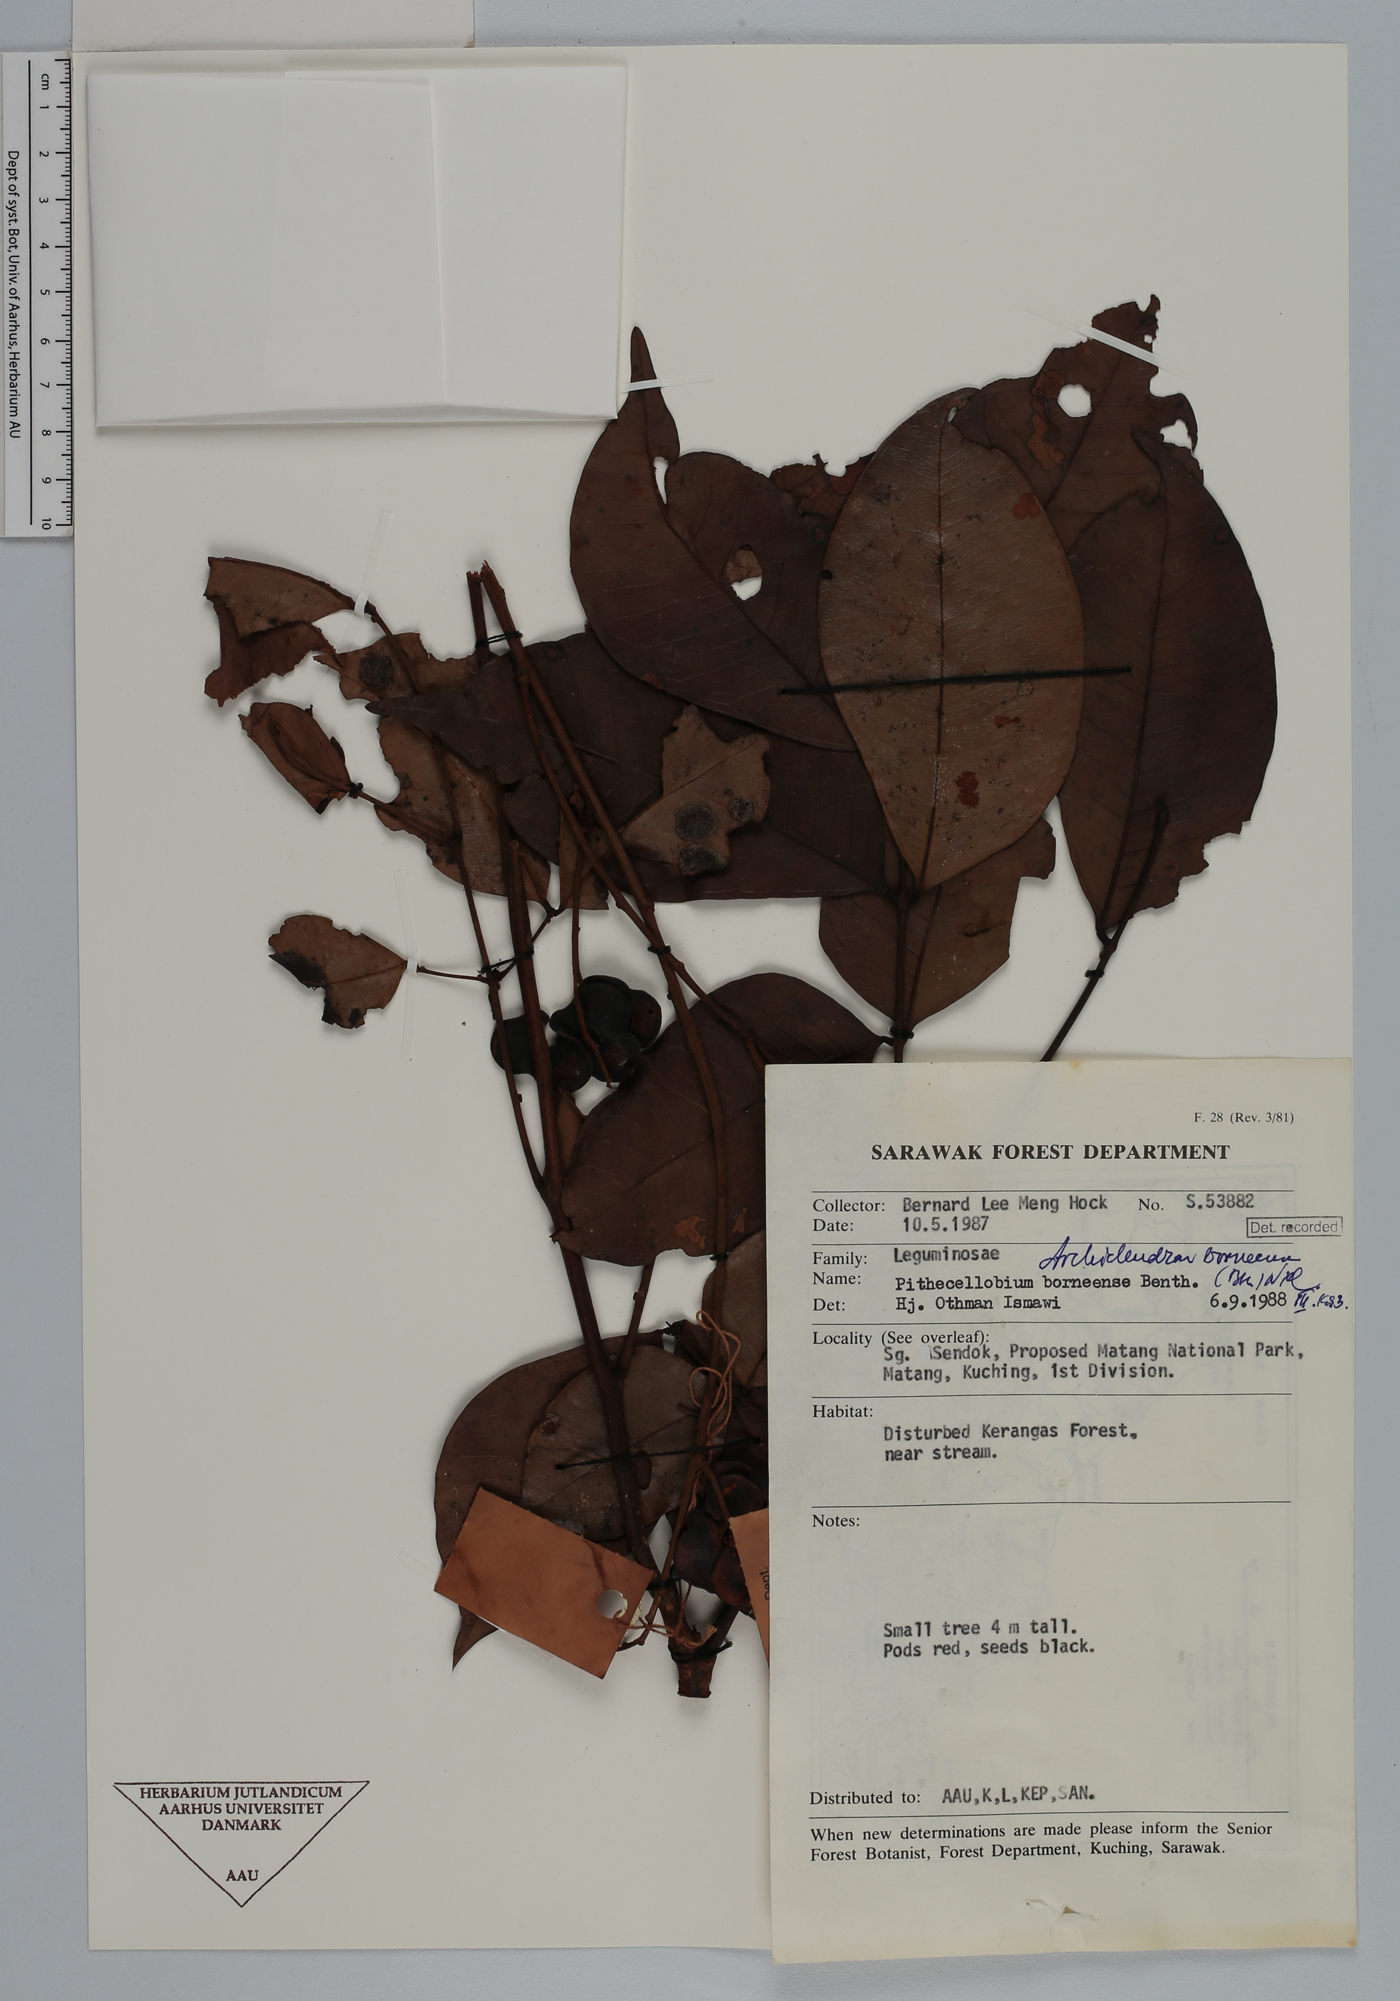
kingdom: Plantae
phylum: Tracheophyta
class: Magnoliopsida
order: Fabales
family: Fabaceae
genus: Archidendron
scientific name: Archidendron borneense
